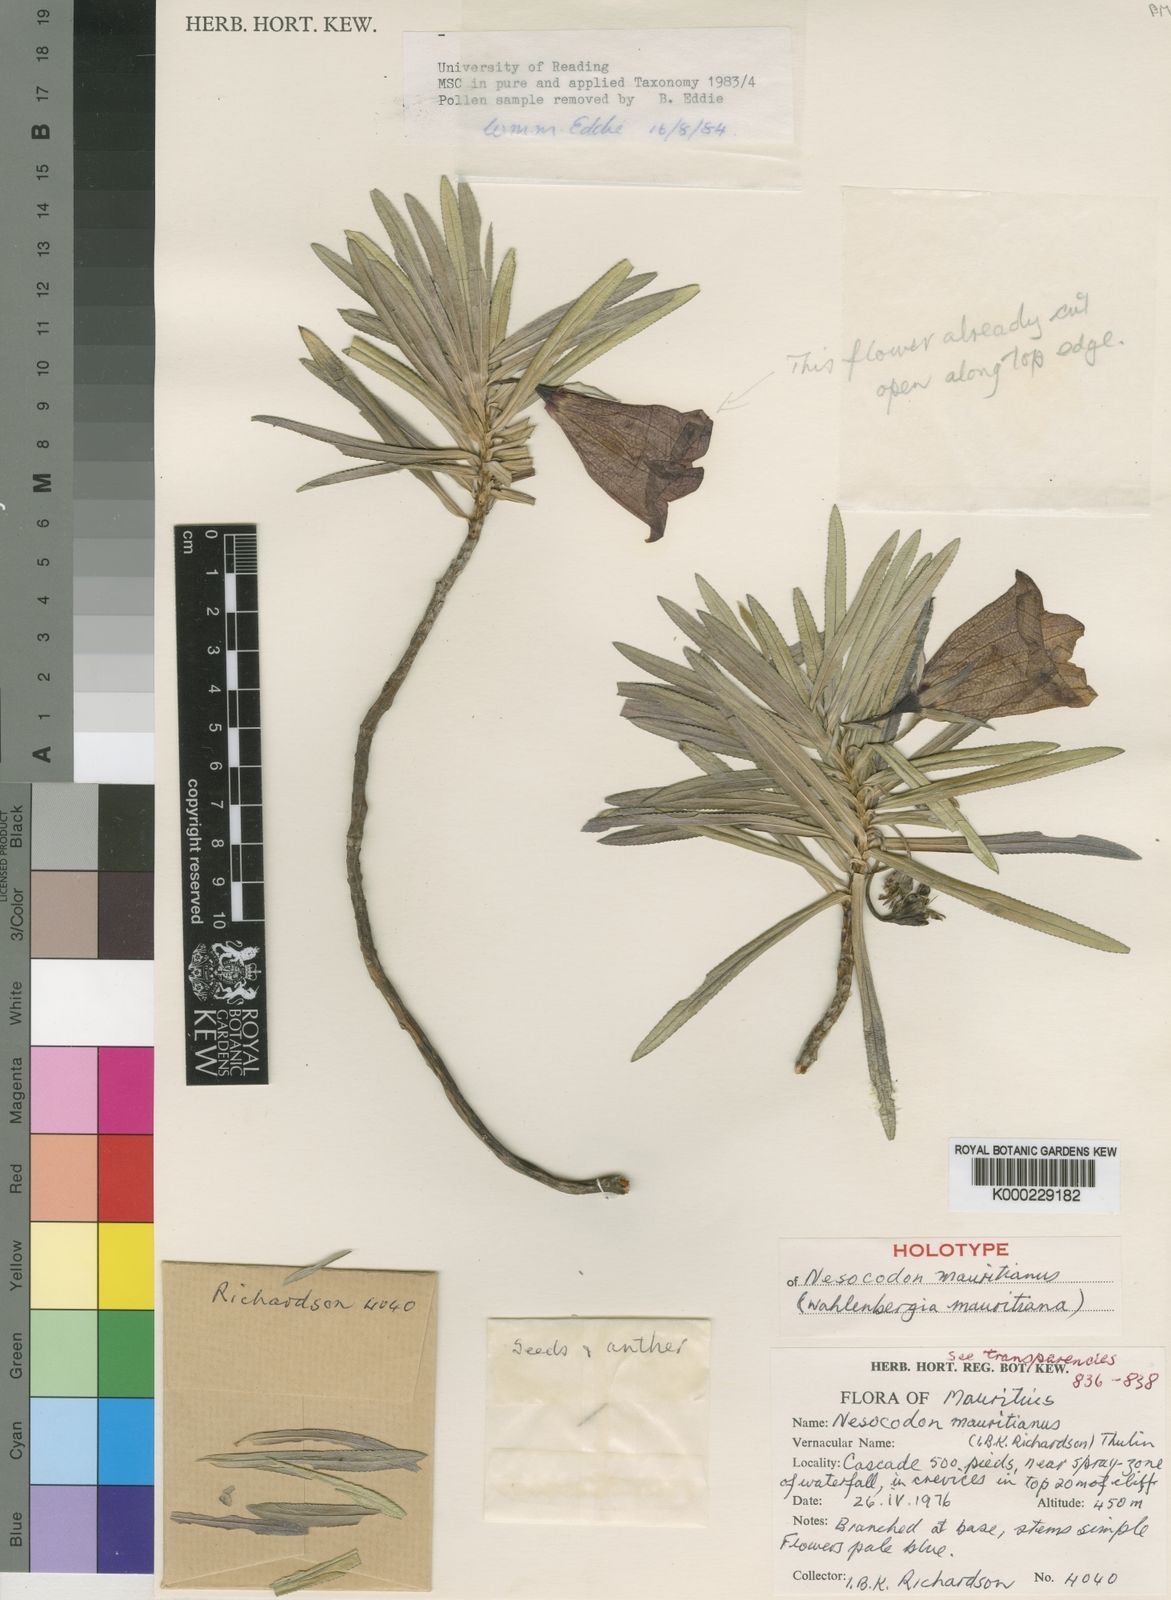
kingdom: Plantae
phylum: Tracheophyta
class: Magnoliopsida
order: Asterales
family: Campanulaceae
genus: Nesocodon
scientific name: Nesocodon mauritianus
